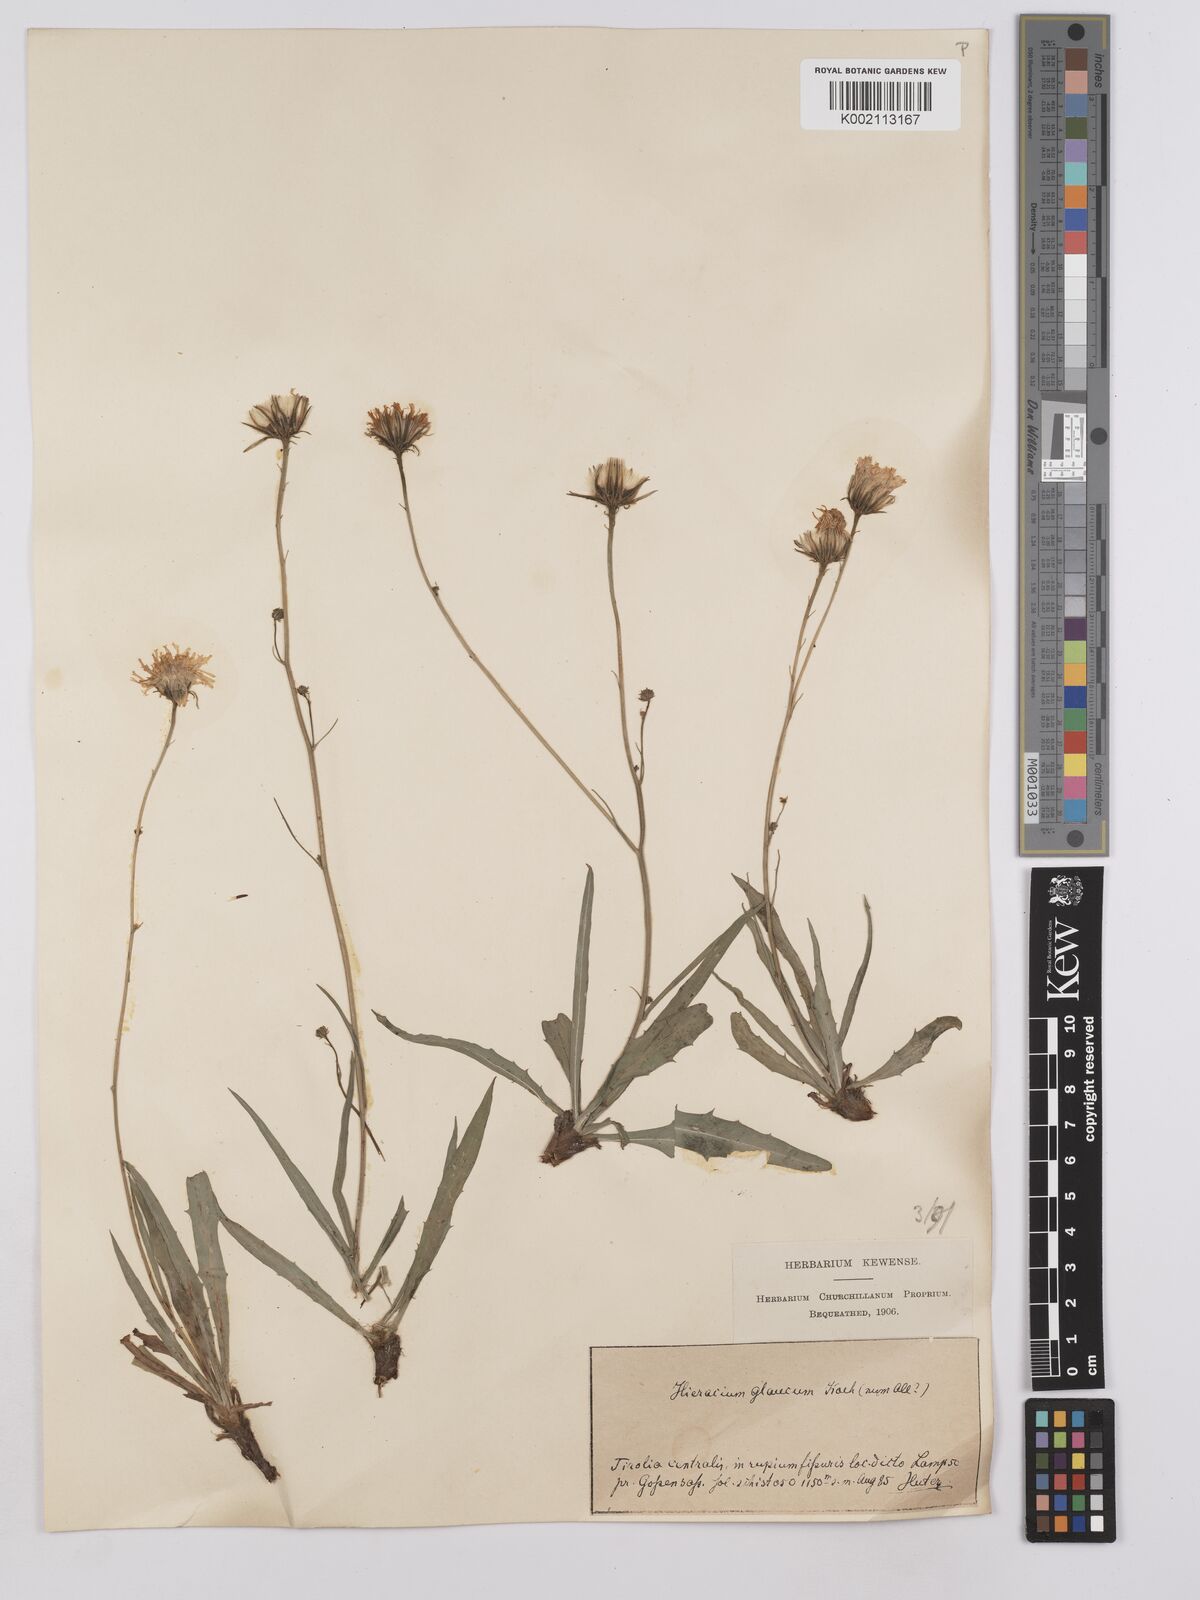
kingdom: Plantae
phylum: Tracheophyta
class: Magnoliopsida
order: Asterales
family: Asteraceae
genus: Hieracium
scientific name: Hieracium glaucum
